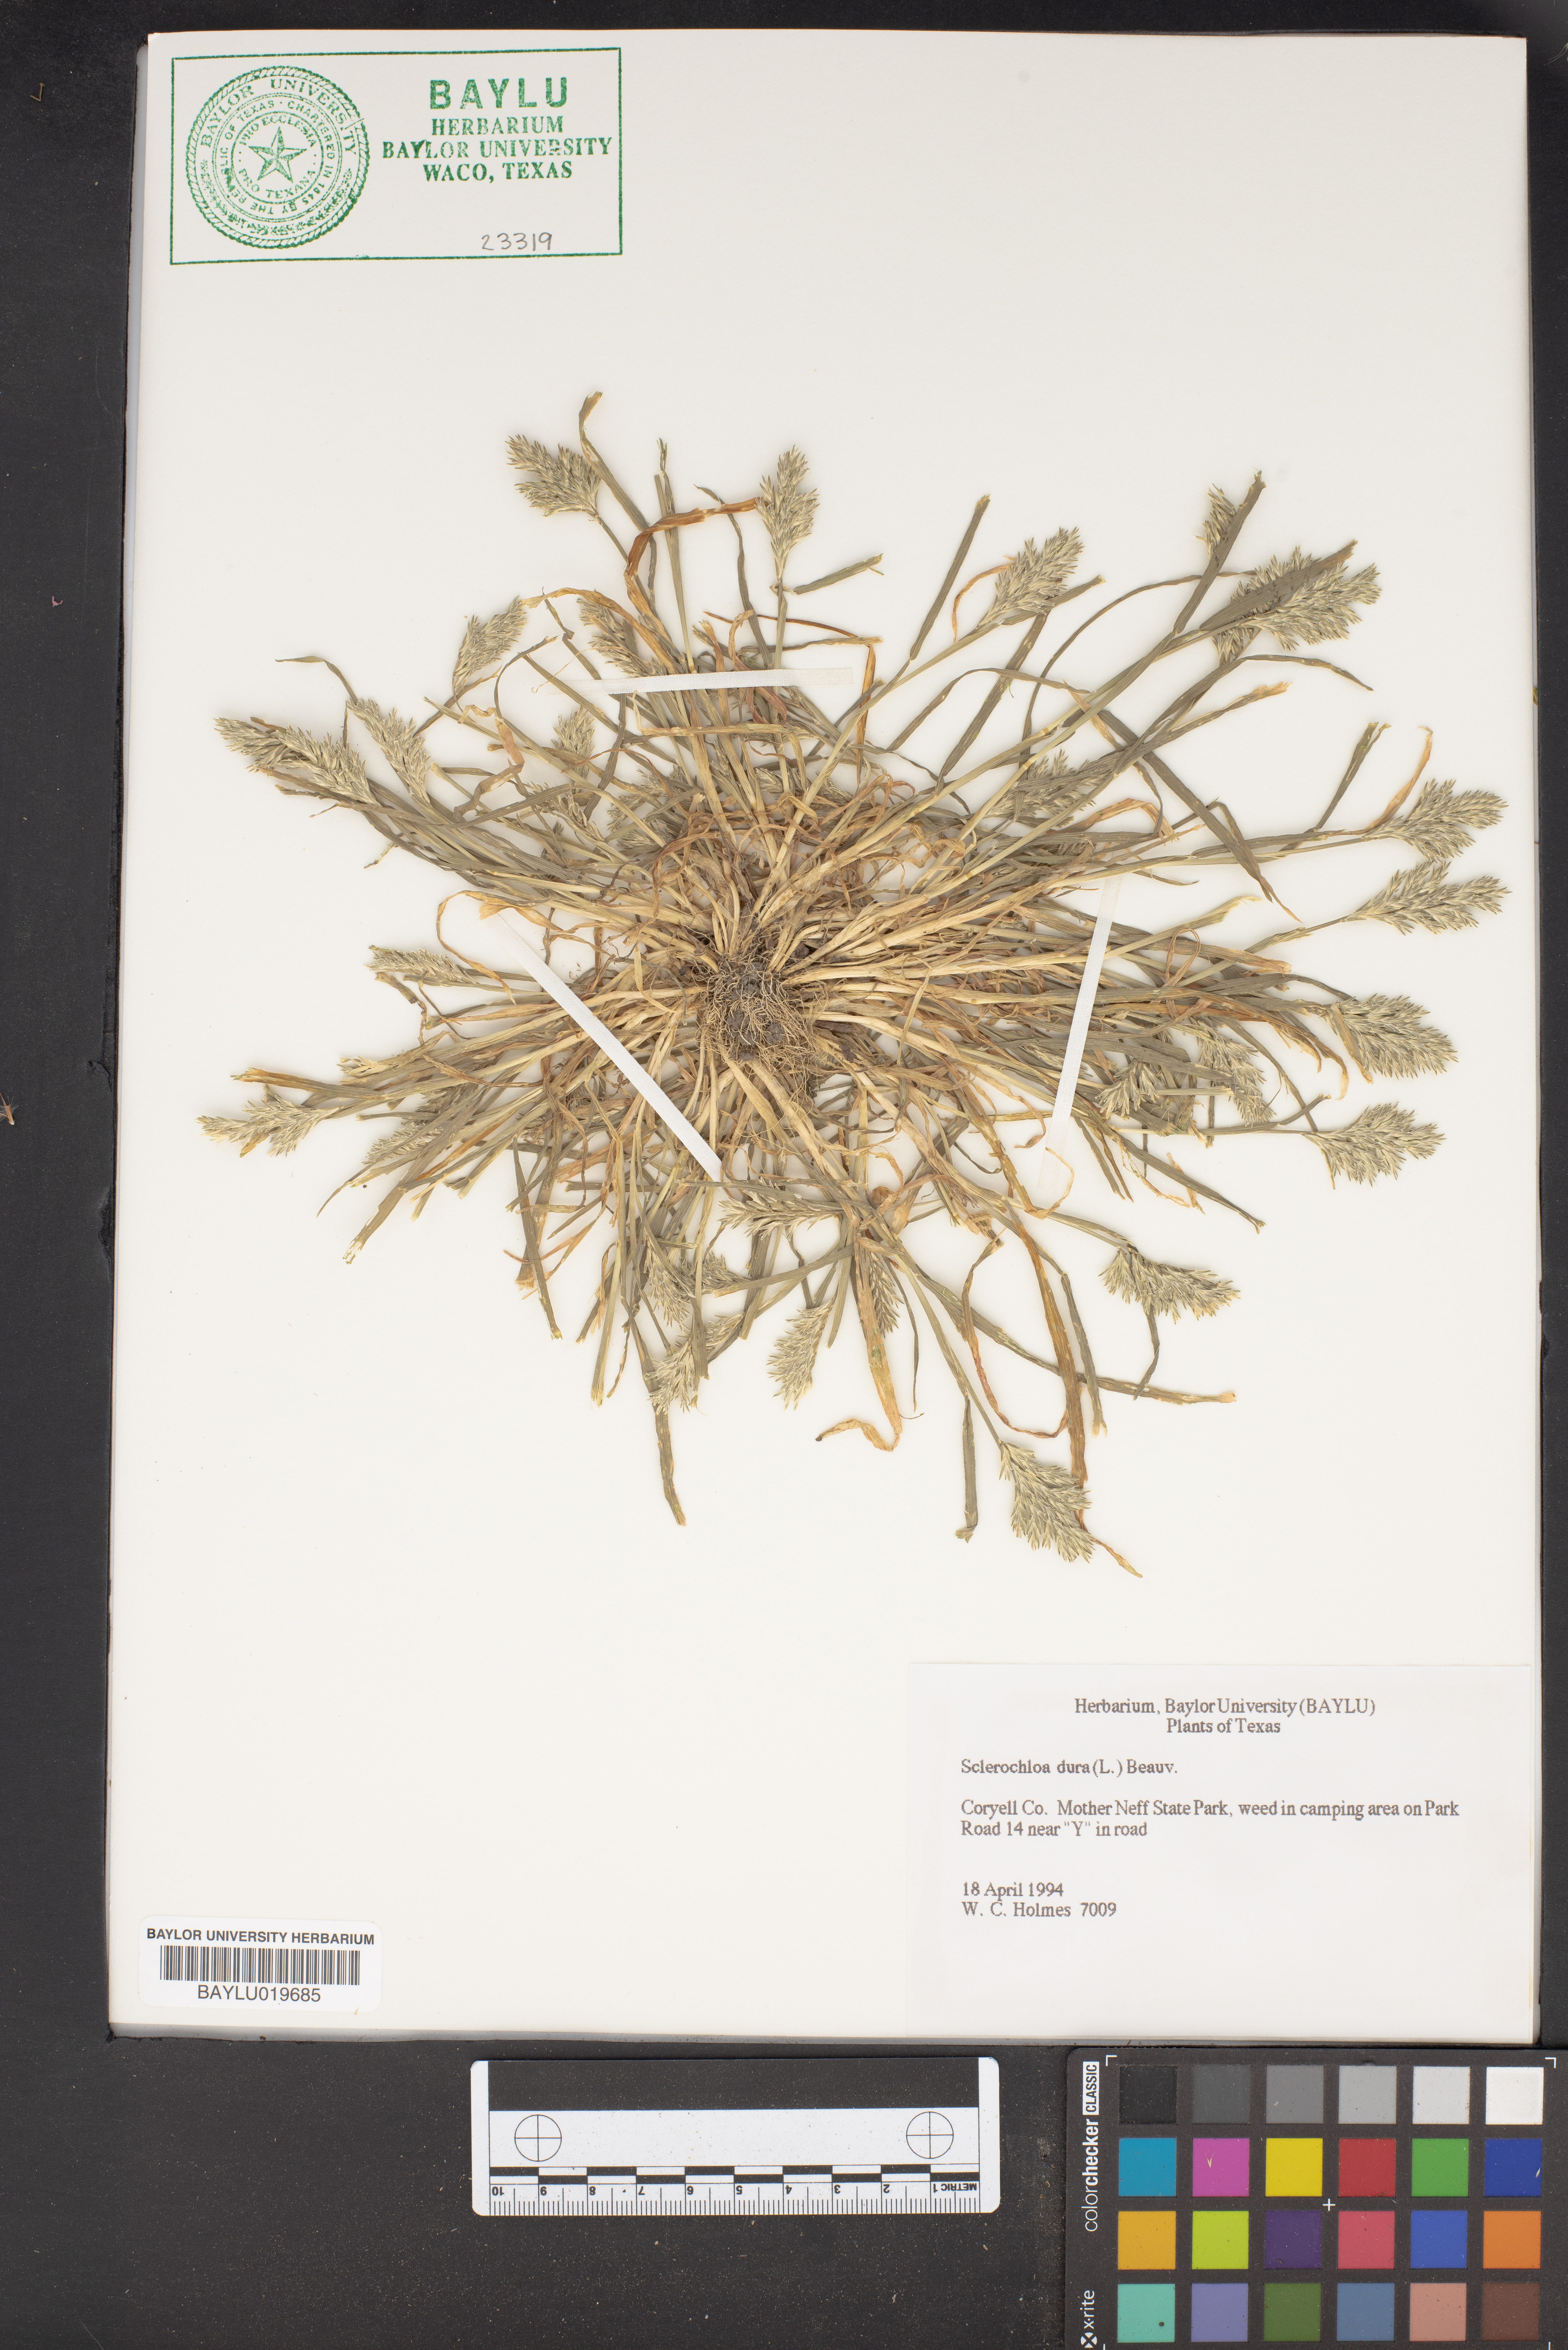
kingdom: Plantae
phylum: Tracheophyta
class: Liliopsida
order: Poales
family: Poaceae
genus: Sclerochloa
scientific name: Sclerochloa dura
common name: Common hardgrass
